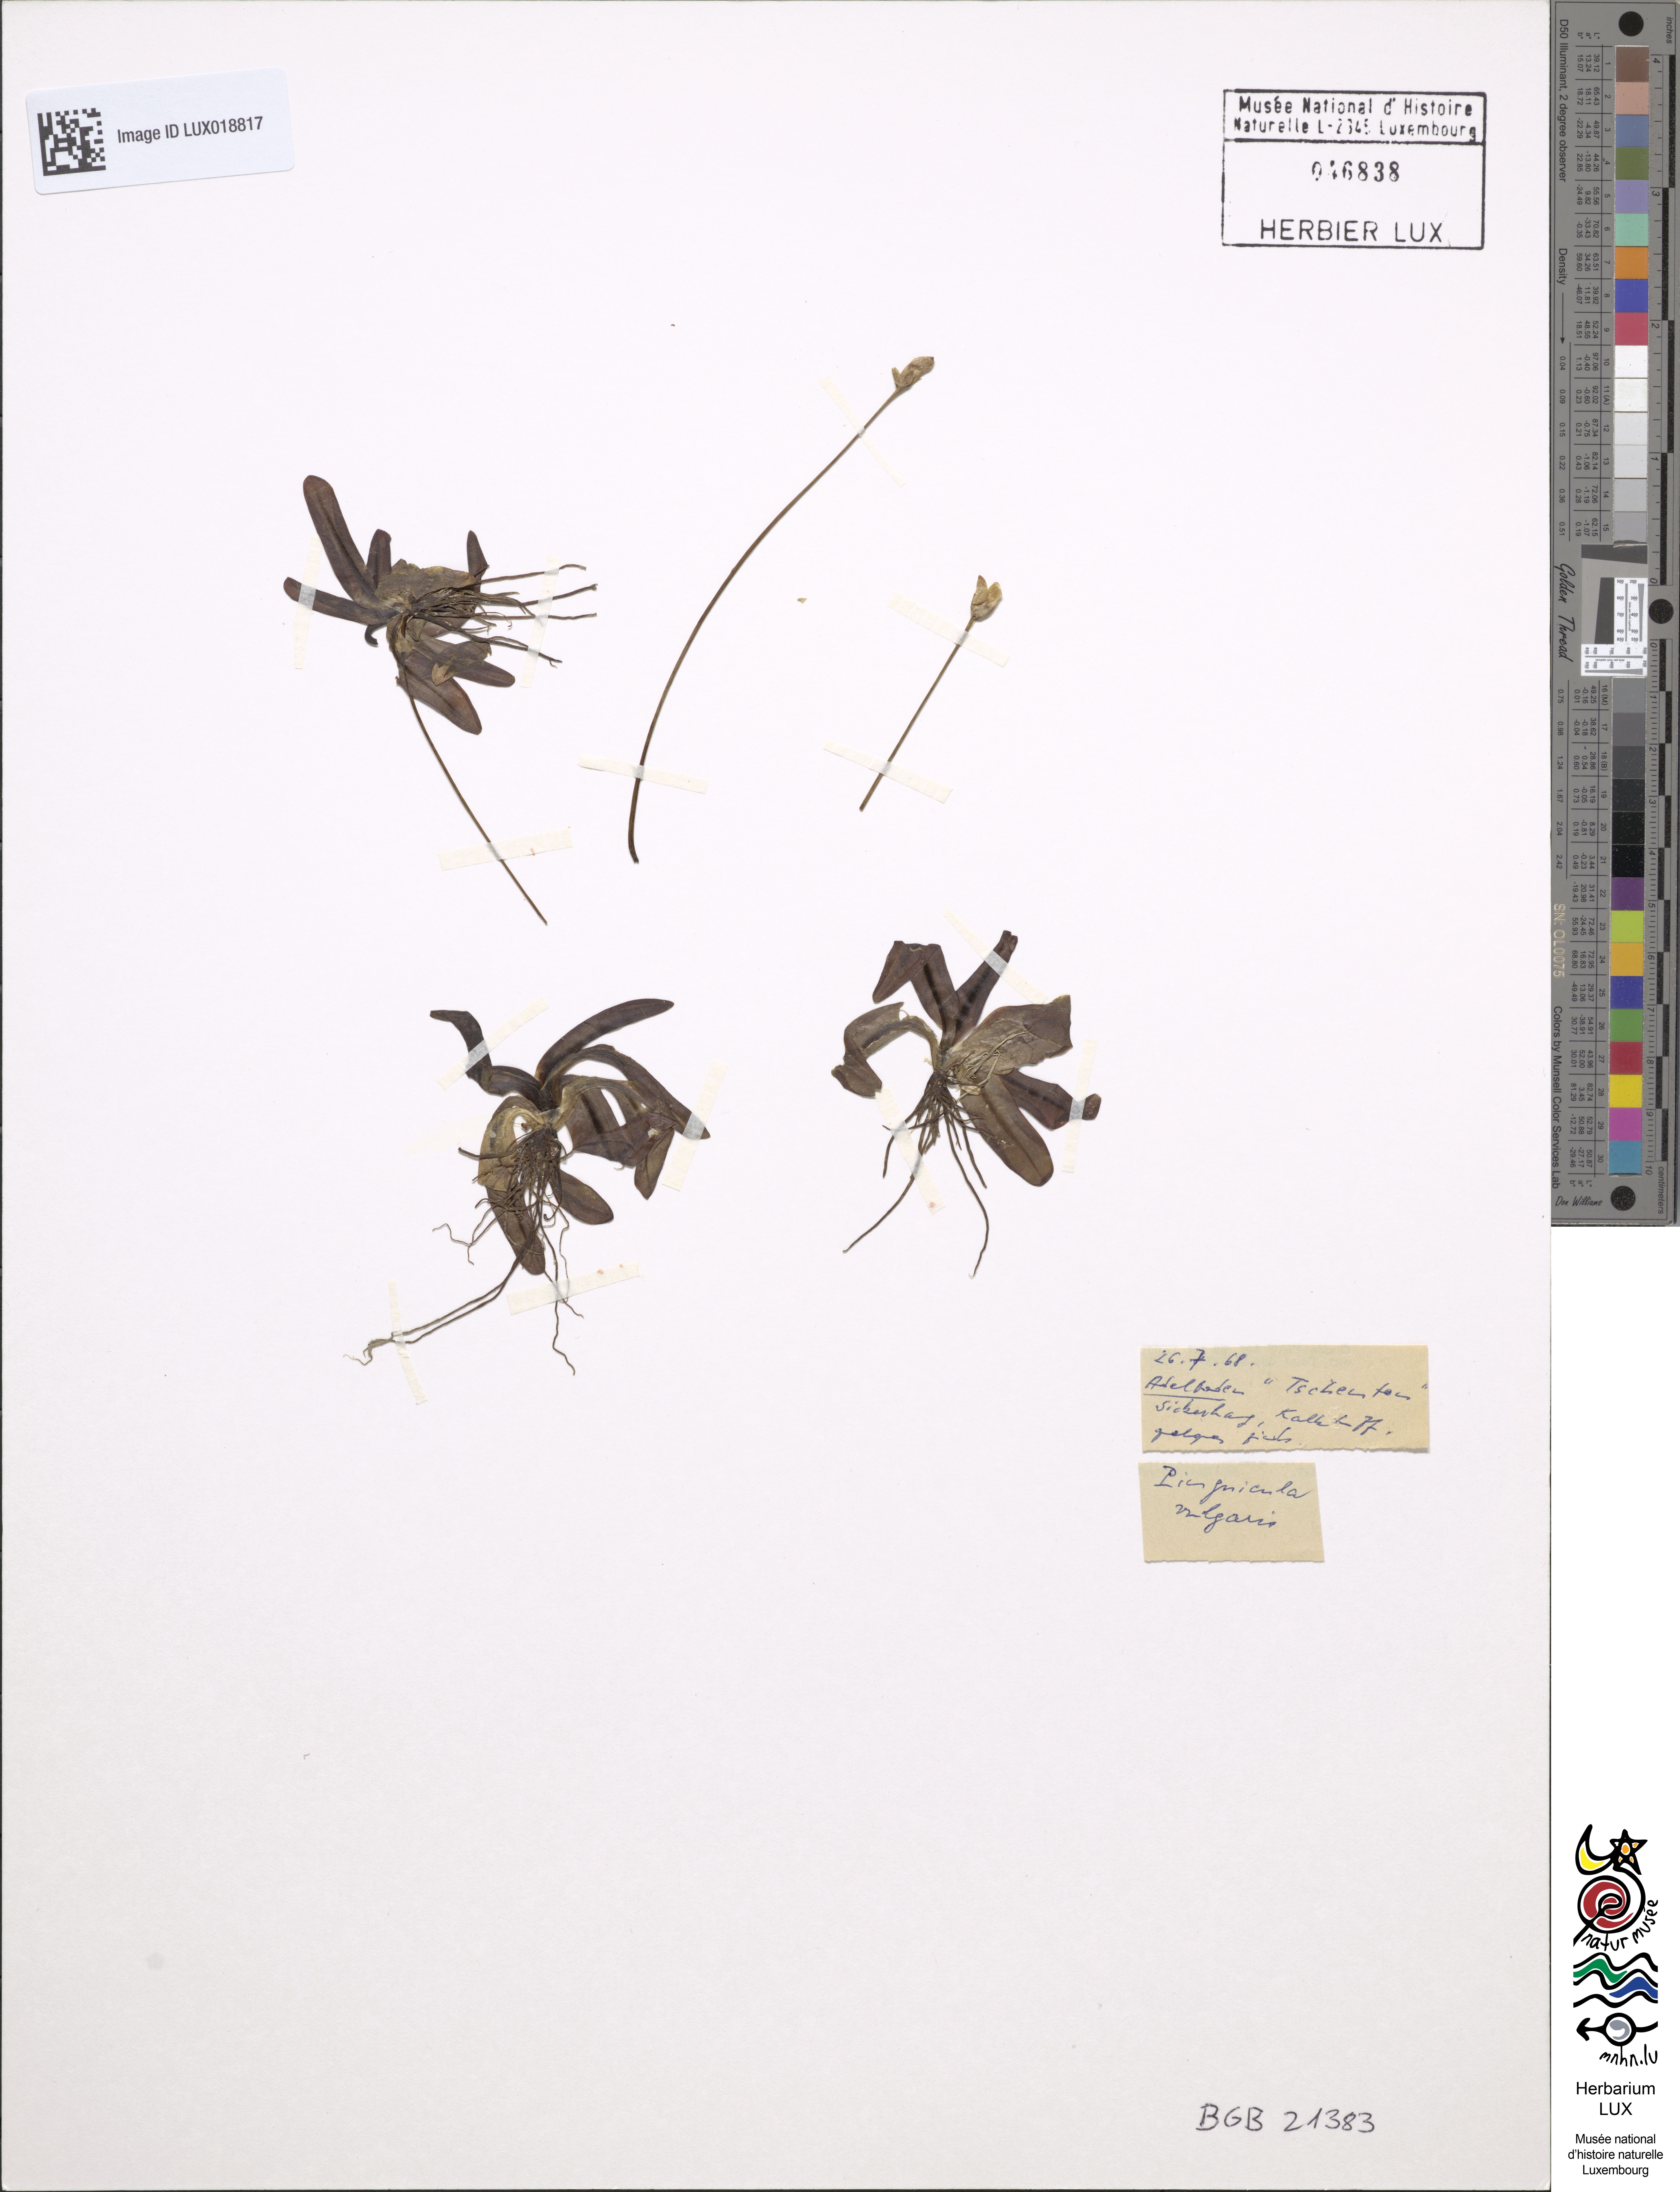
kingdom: Plantae
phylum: Tracheophyta
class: Magnoliopsida
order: Lamiales
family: Lentibulariaceae
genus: Pinguicula
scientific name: Pinguicula vulgaris
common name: Common butterwort
